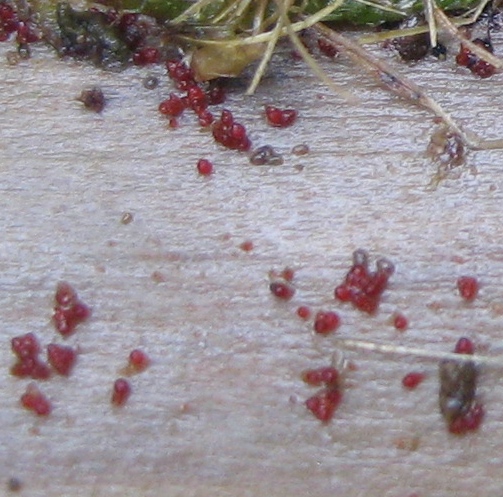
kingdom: Fungi
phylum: Ascomycota
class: Sordariomycetes
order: Hypocreales
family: Nectriaceae
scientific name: Nectriaceae
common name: cinnobersvampfamilien
